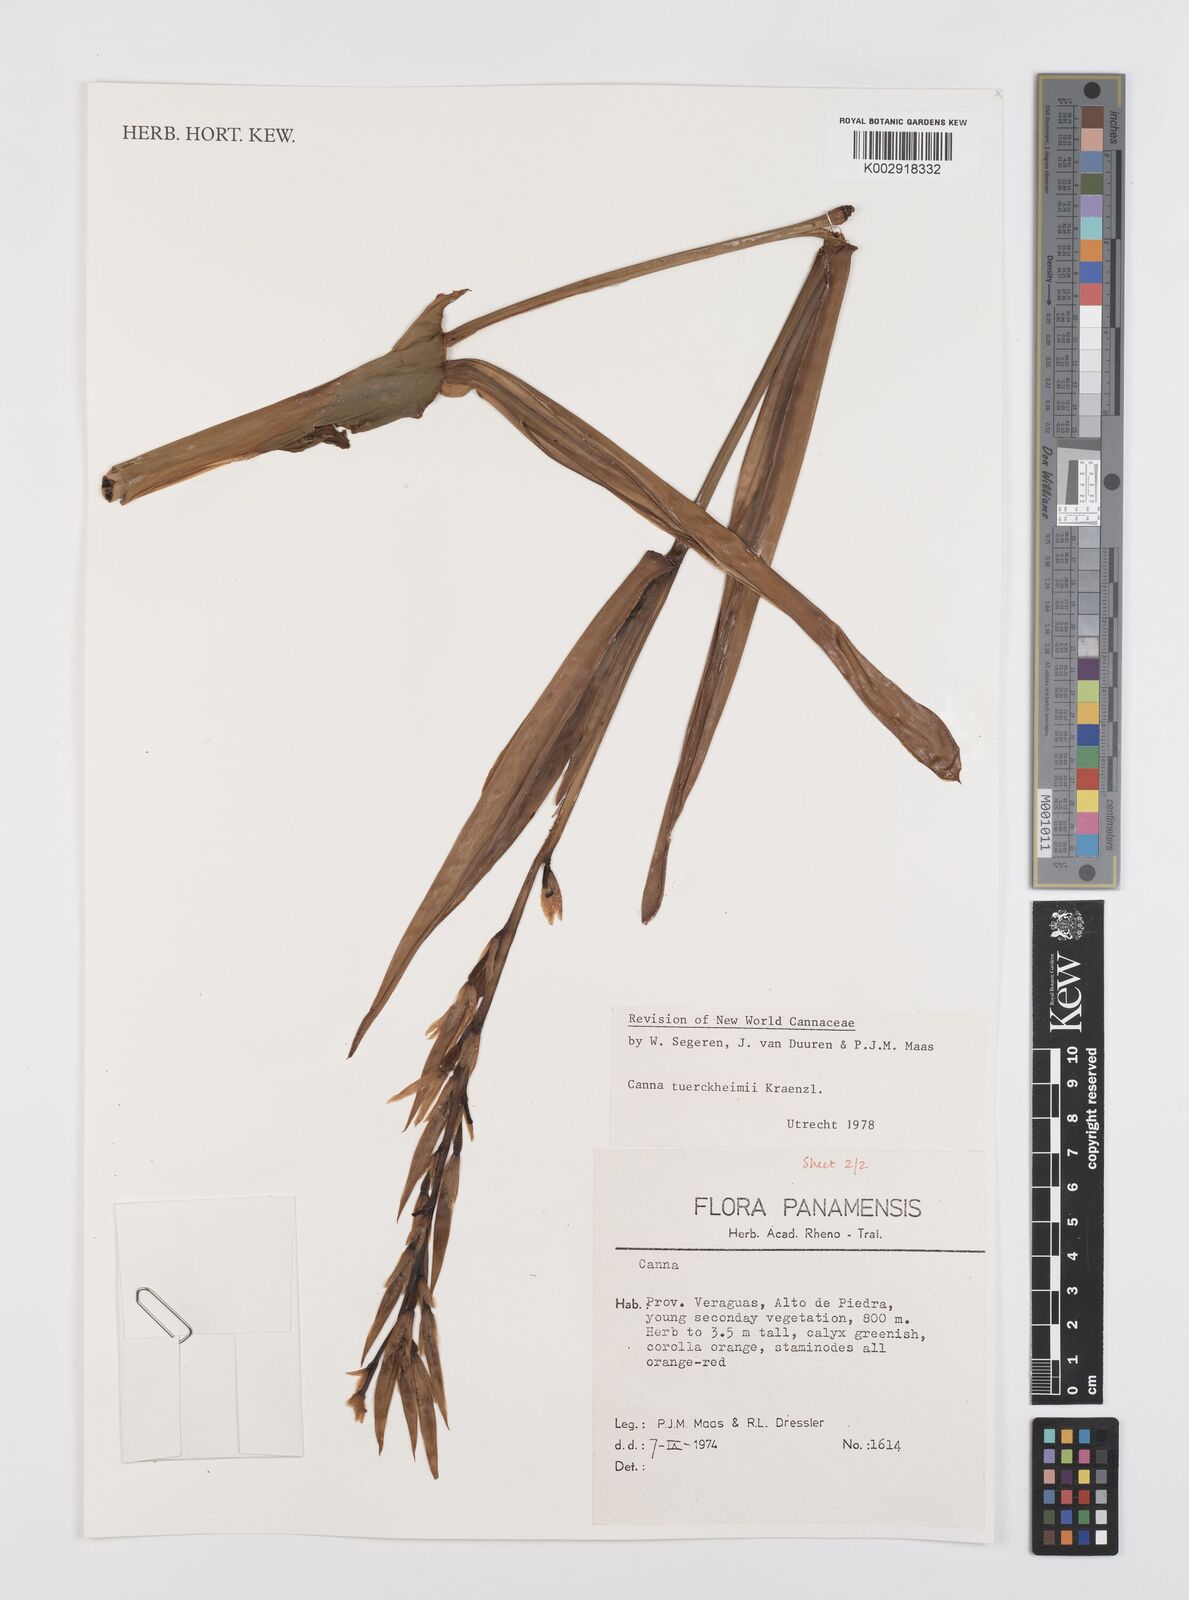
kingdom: Plantae
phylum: Tracheophyta
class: Liliopsida
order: Zingiberales
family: Cannaceae
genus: Canna
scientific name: Canna tuerckheimii
